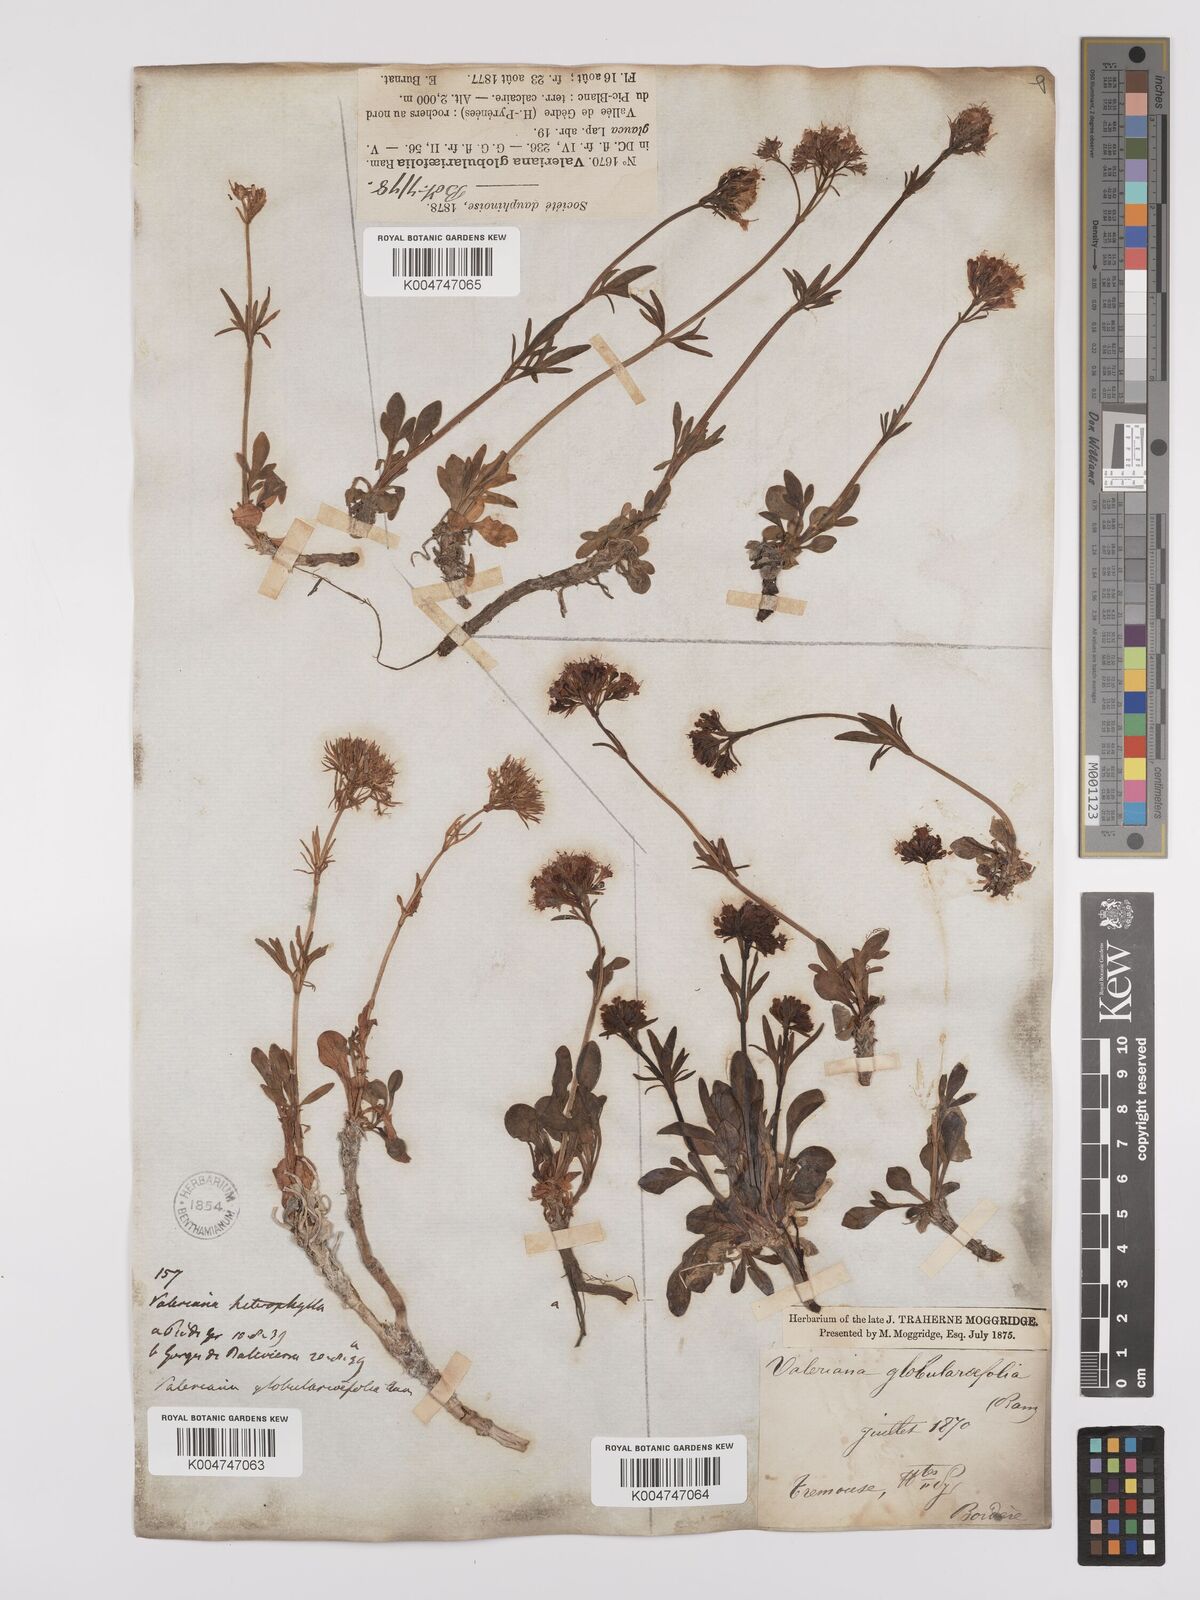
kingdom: Plantae
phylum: Tracheophyta
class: Magnoliopsida
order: Dipsacales
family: Caprifoliaceae
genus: Valeriana
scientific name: Valeriana apula
